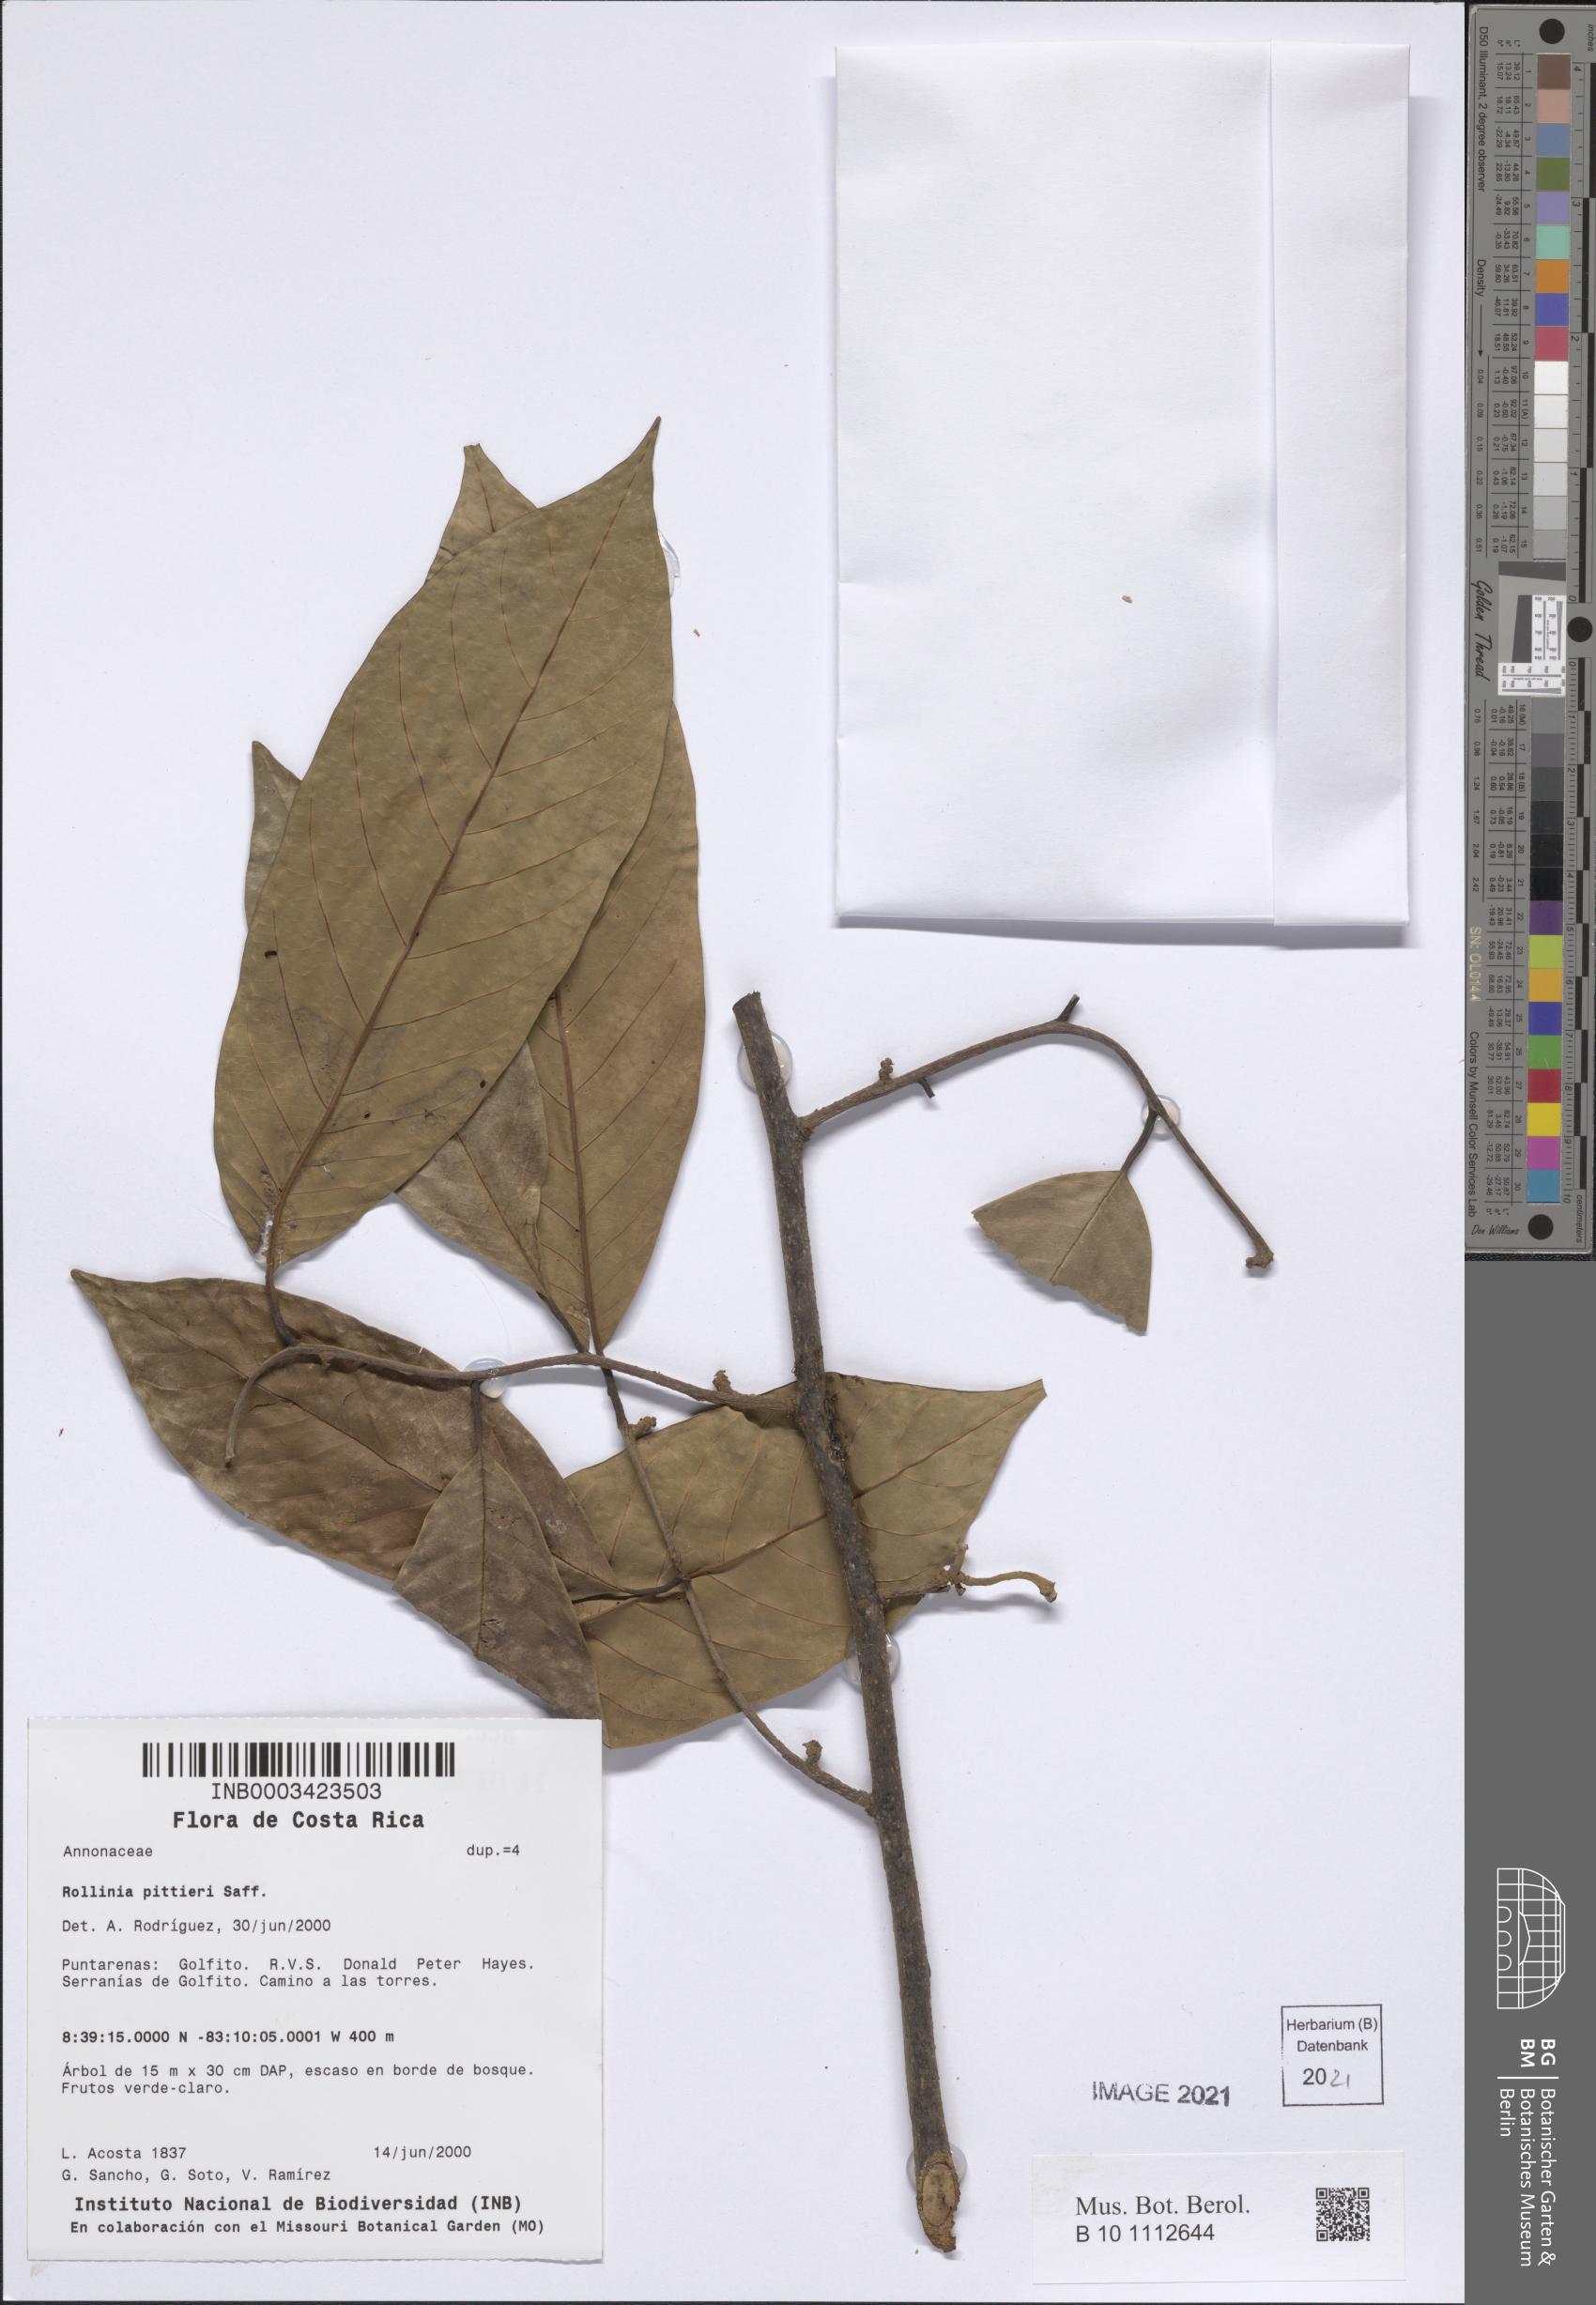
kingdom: Plantae
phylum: Tracheophyta
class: Magnoliopsida
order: Magnoliales
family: Annonaceae
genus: Annona
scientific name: Annona papilionella
